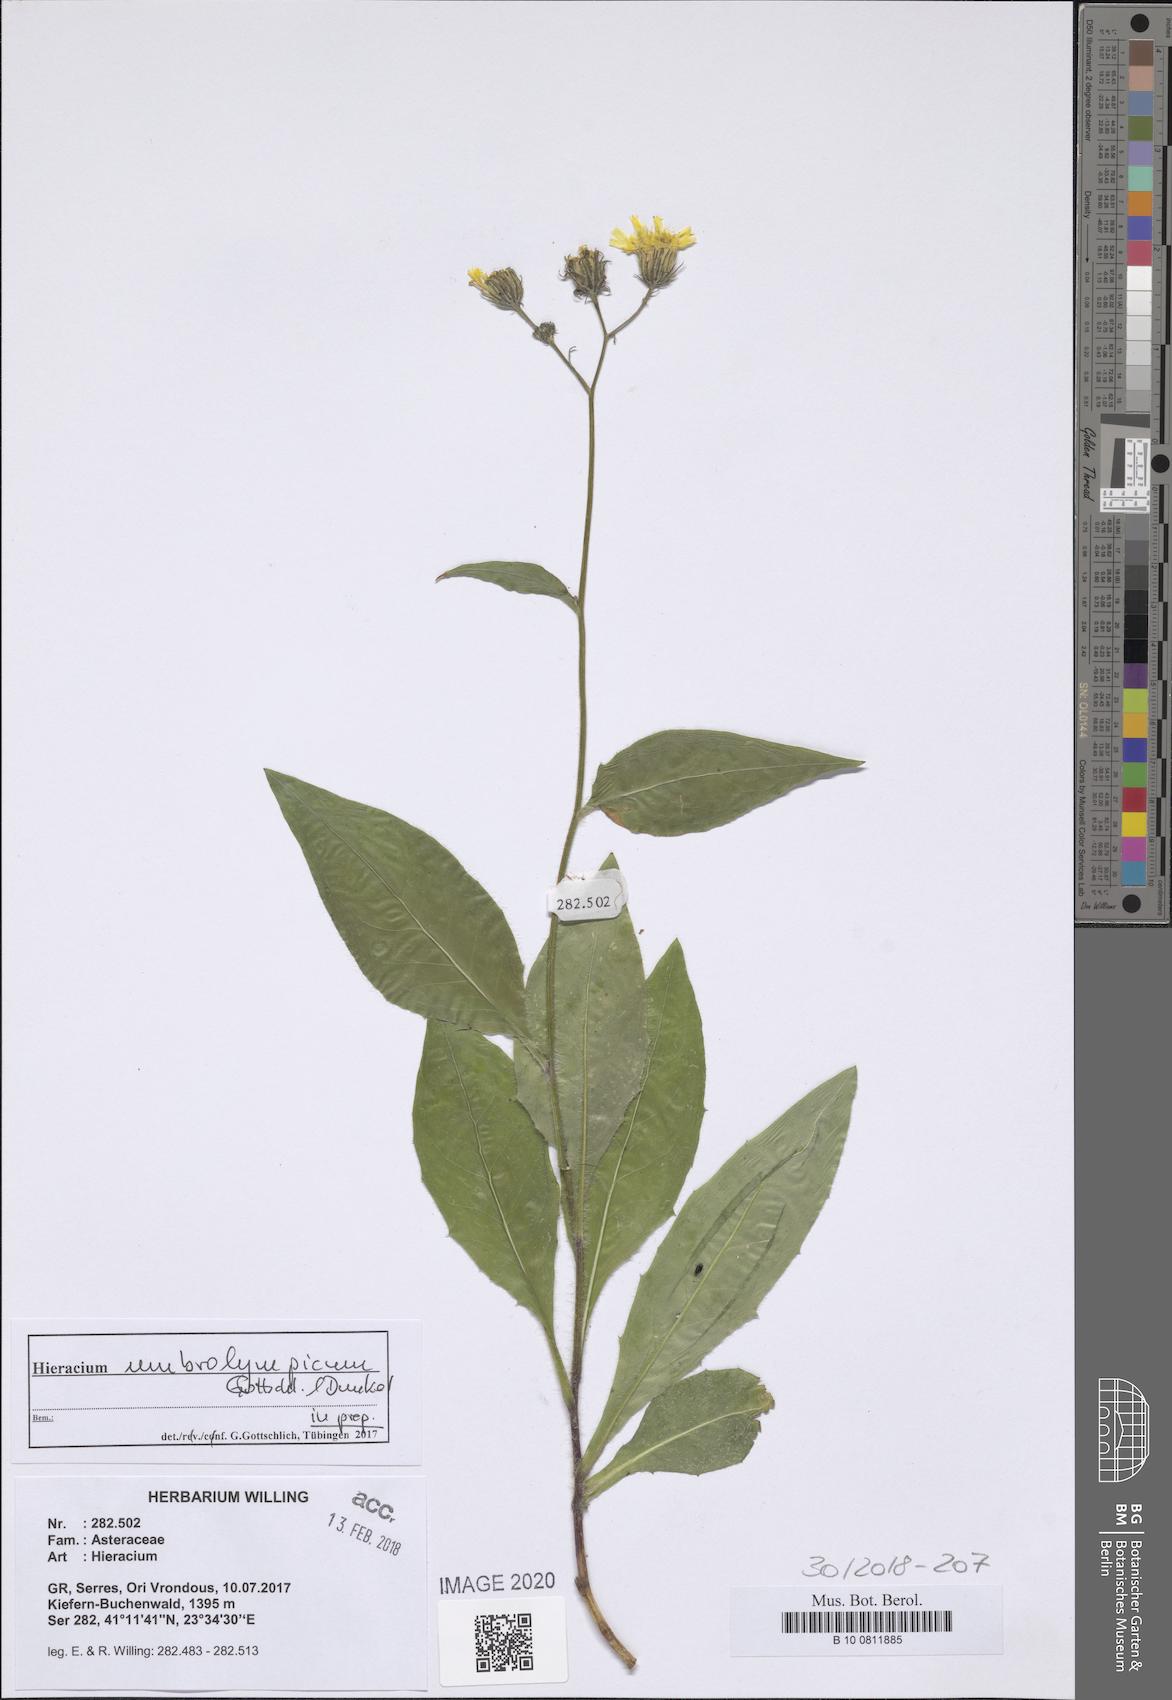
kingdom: Plantae
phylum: Tracheophyta
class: Magnoliopsida
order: Asterales
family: Asteraceae
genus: Hieracium
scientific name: Hieracium umbrolympicum
